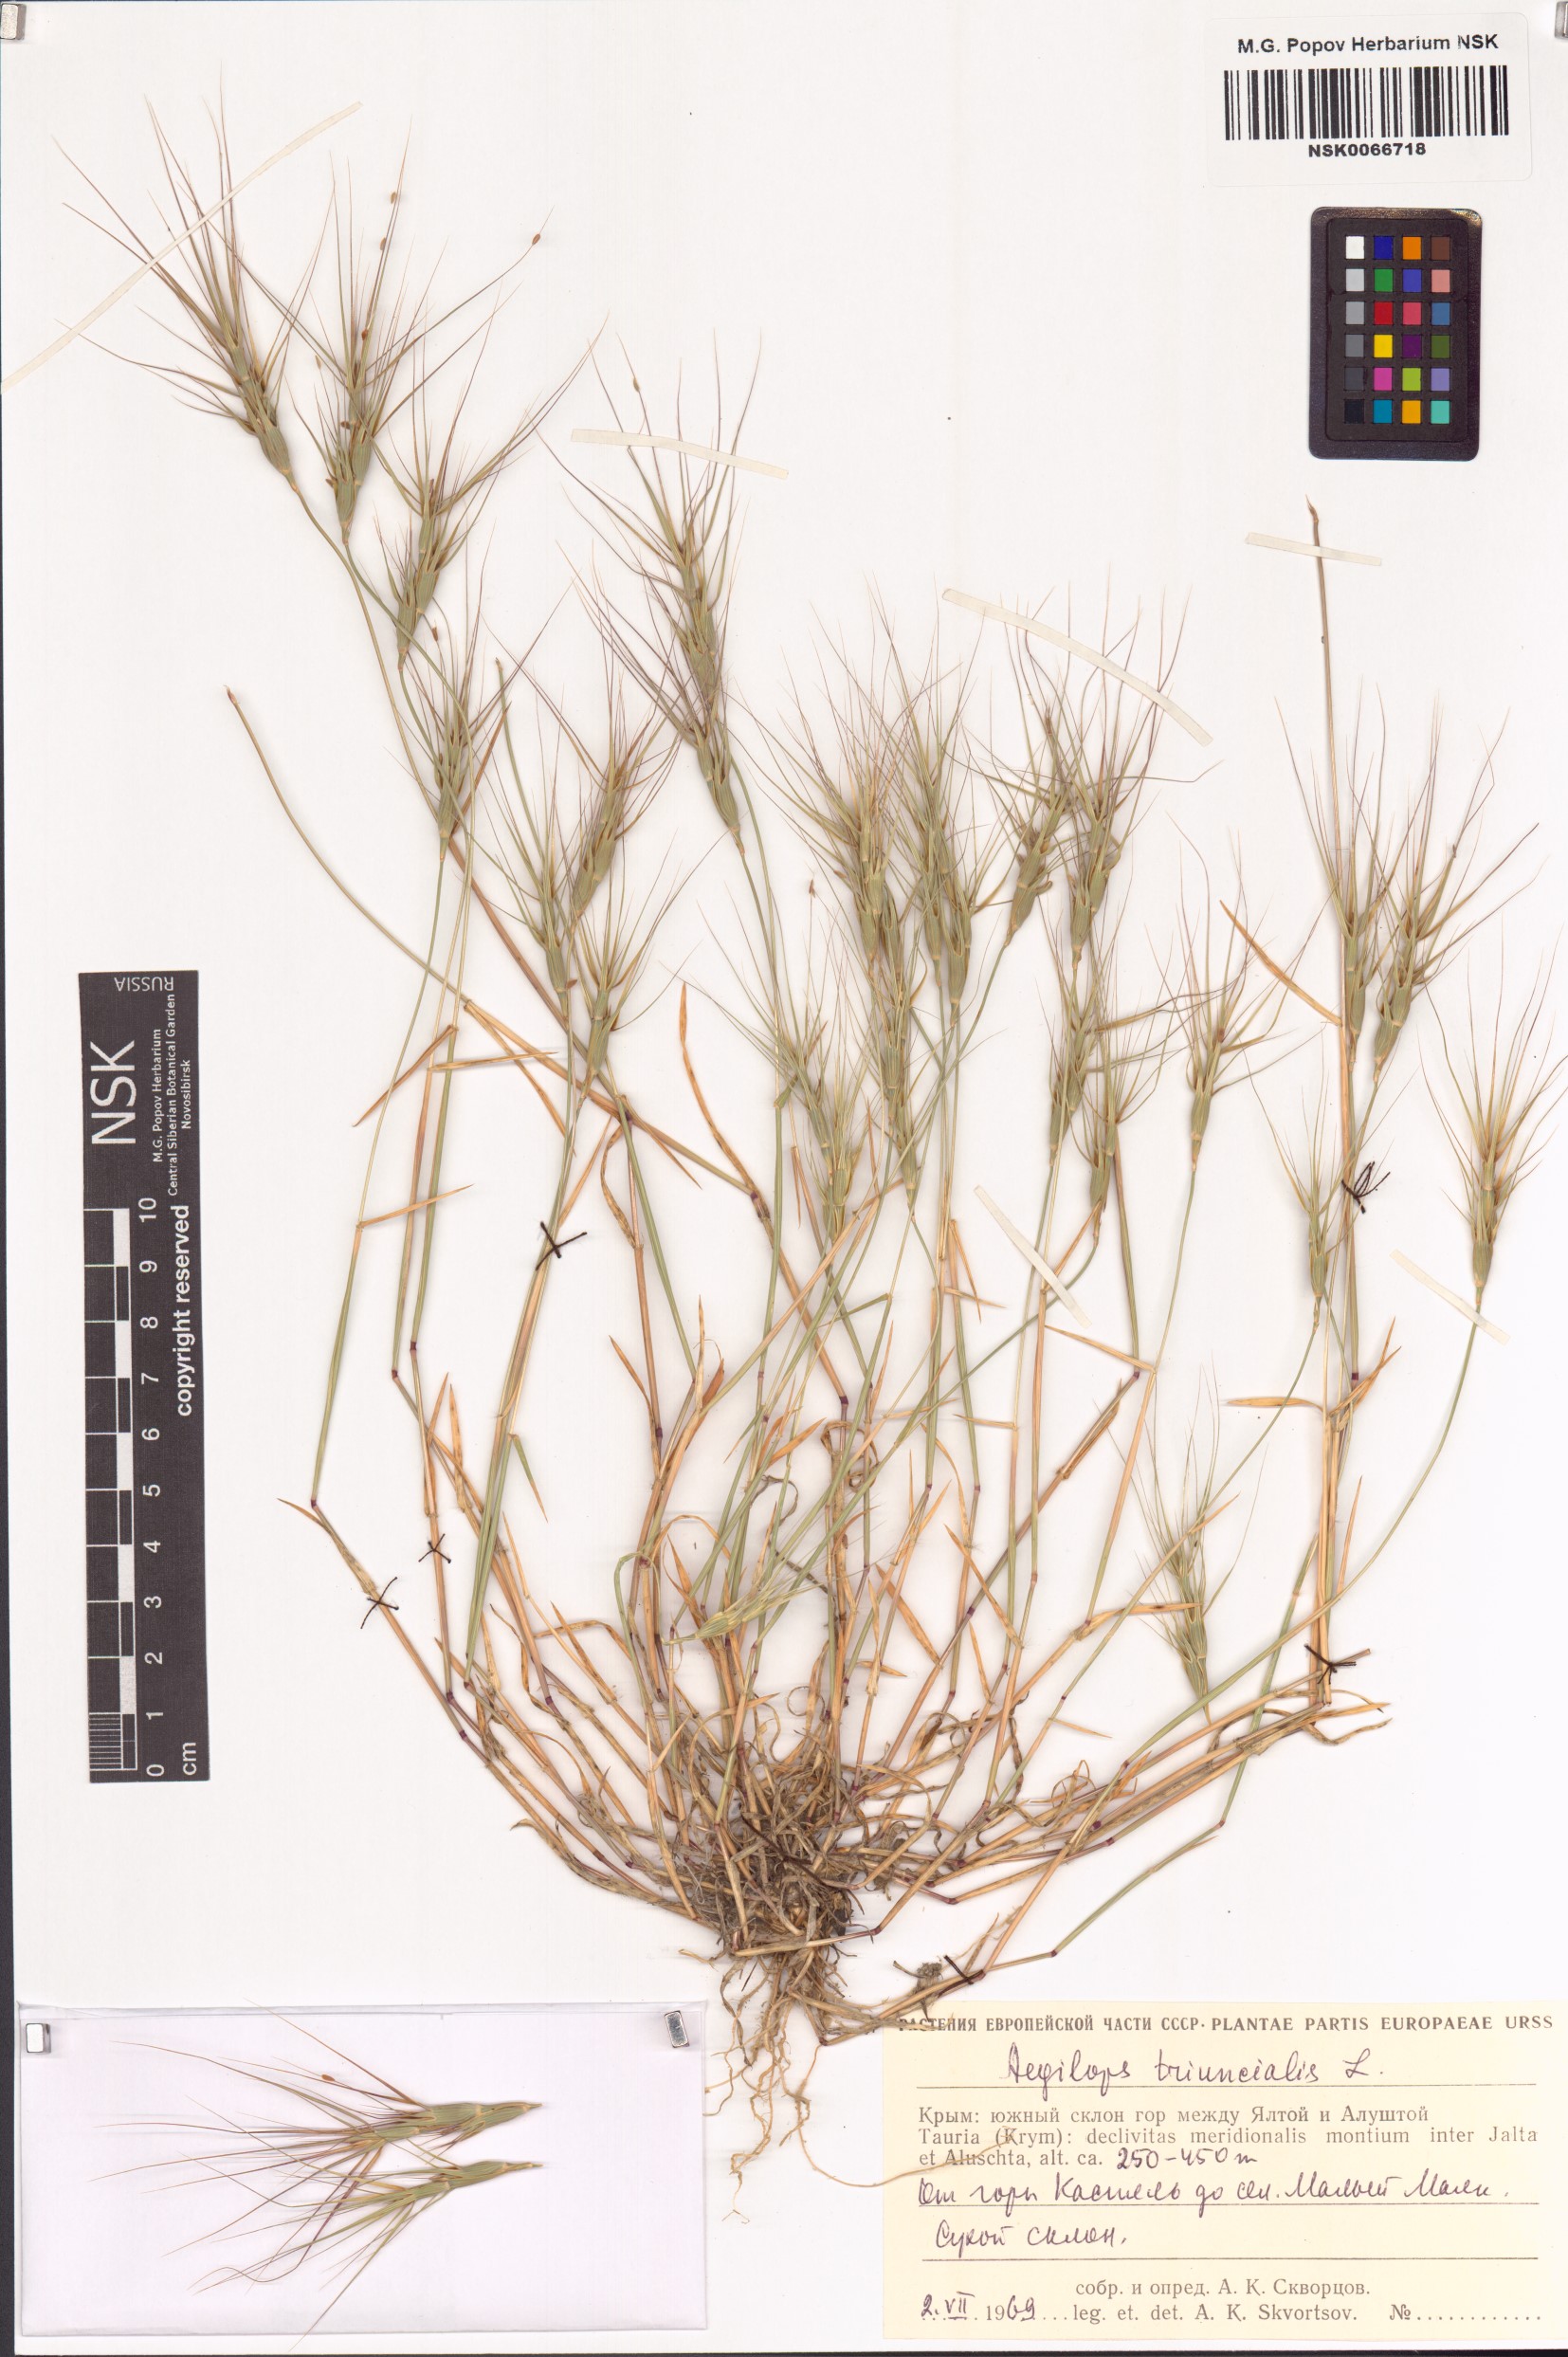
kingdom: Plantae
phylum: Tracheophyta
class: Liliopsida
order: Poales
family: Poaceae
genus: Aegilops
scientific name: Aegilops triuncialis
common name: Barb goat grass
